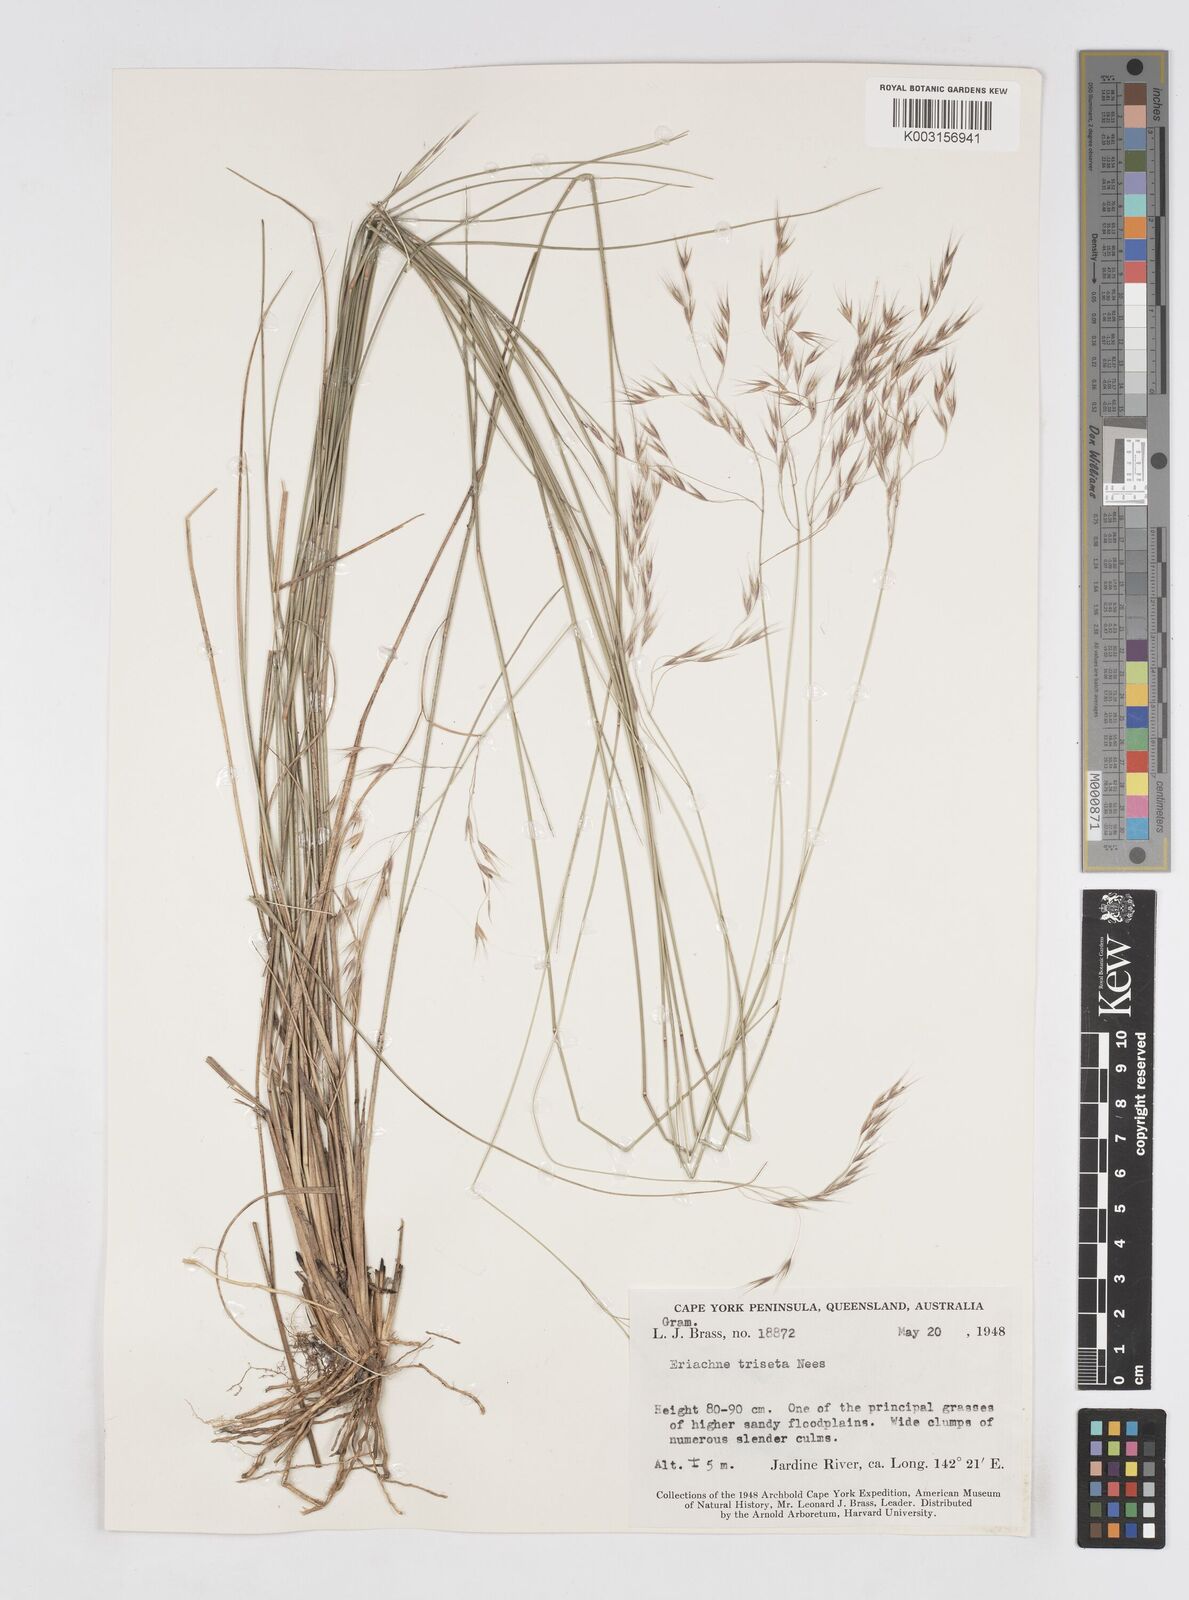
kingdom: Plantae
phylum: Tracheophyta
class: Liliopsida
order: Poales
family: Poaceae
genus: Eriachne
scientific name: Eriachne triseta
